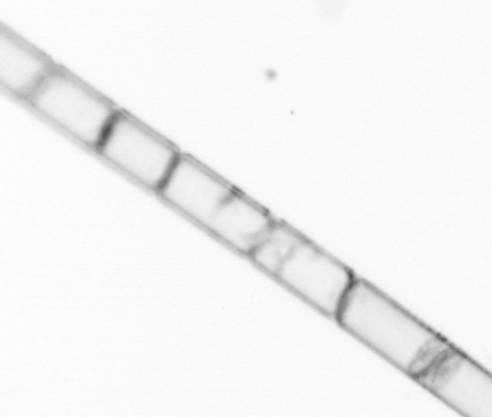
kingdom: Chromista
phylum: Ochrophyta
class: Bacillariophyceae
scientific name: Bacillariophyceae
